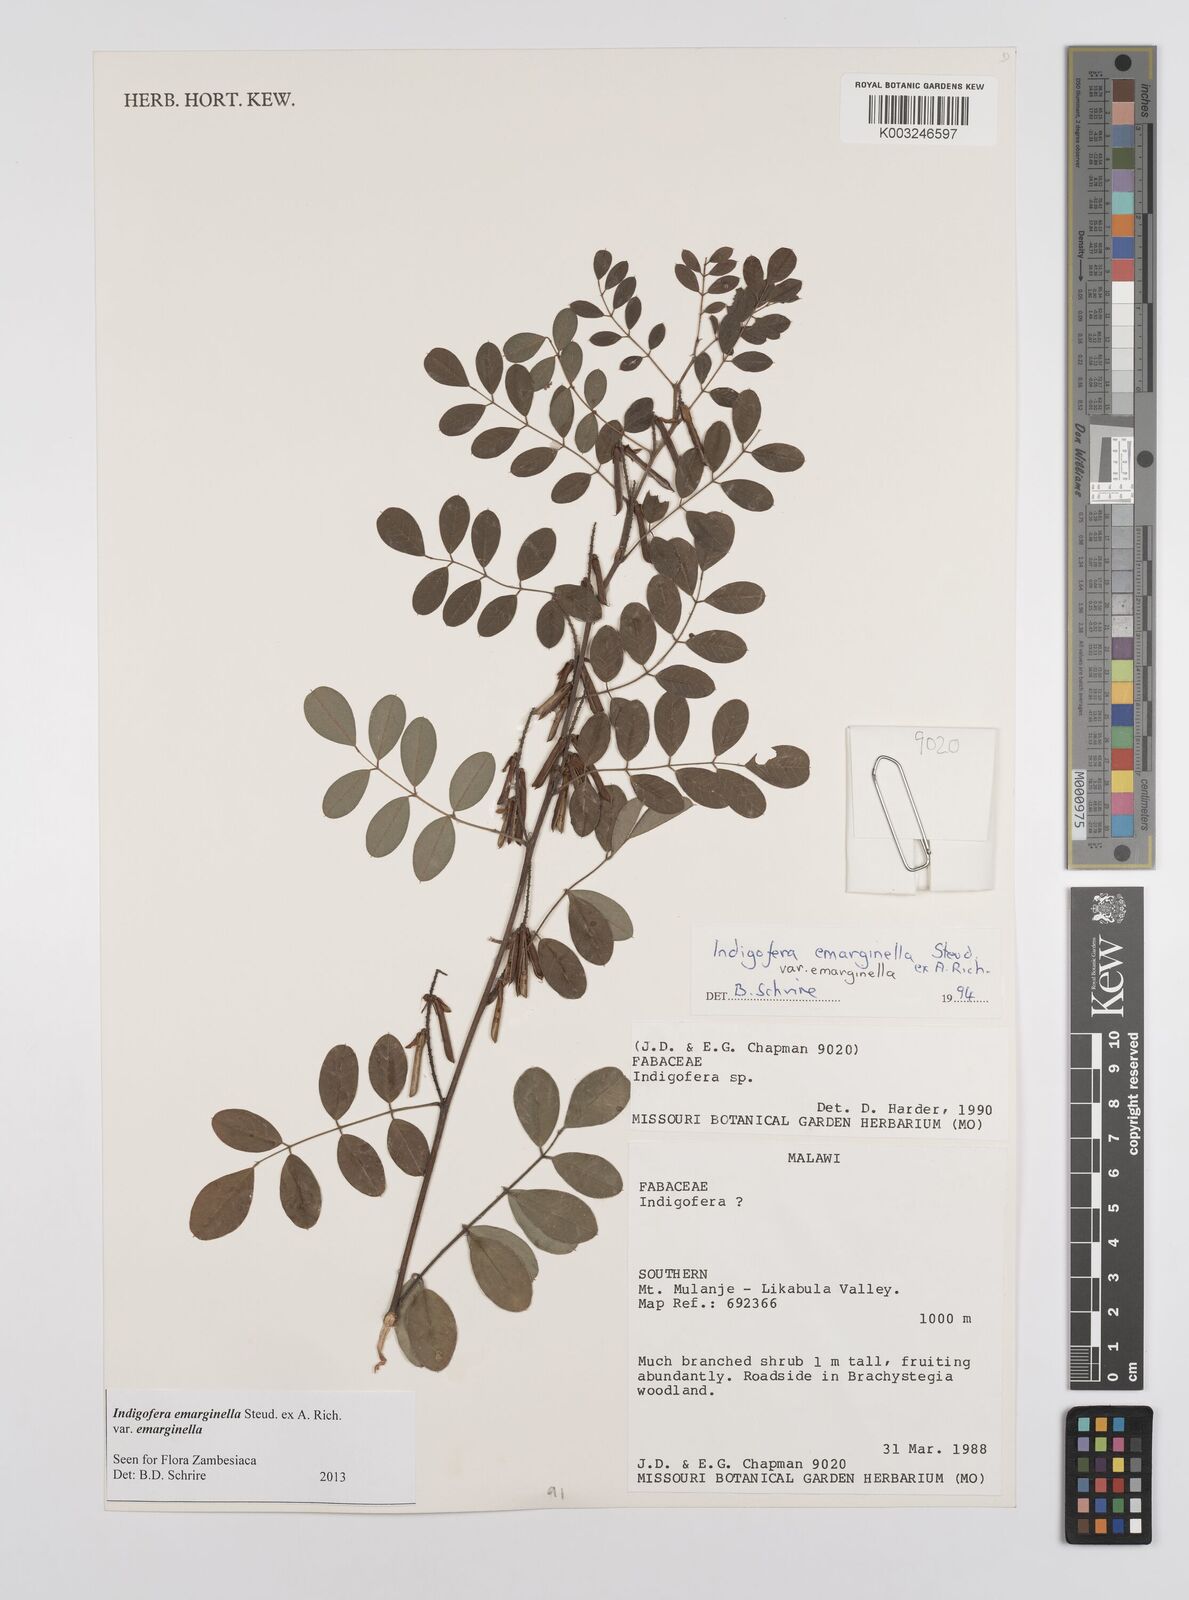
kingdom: Plantae
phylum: Tracheophyta
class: Magnoliopsida
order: Fabales
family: Fabaceae
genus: Indigofera
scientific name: Indigofera emarginella
